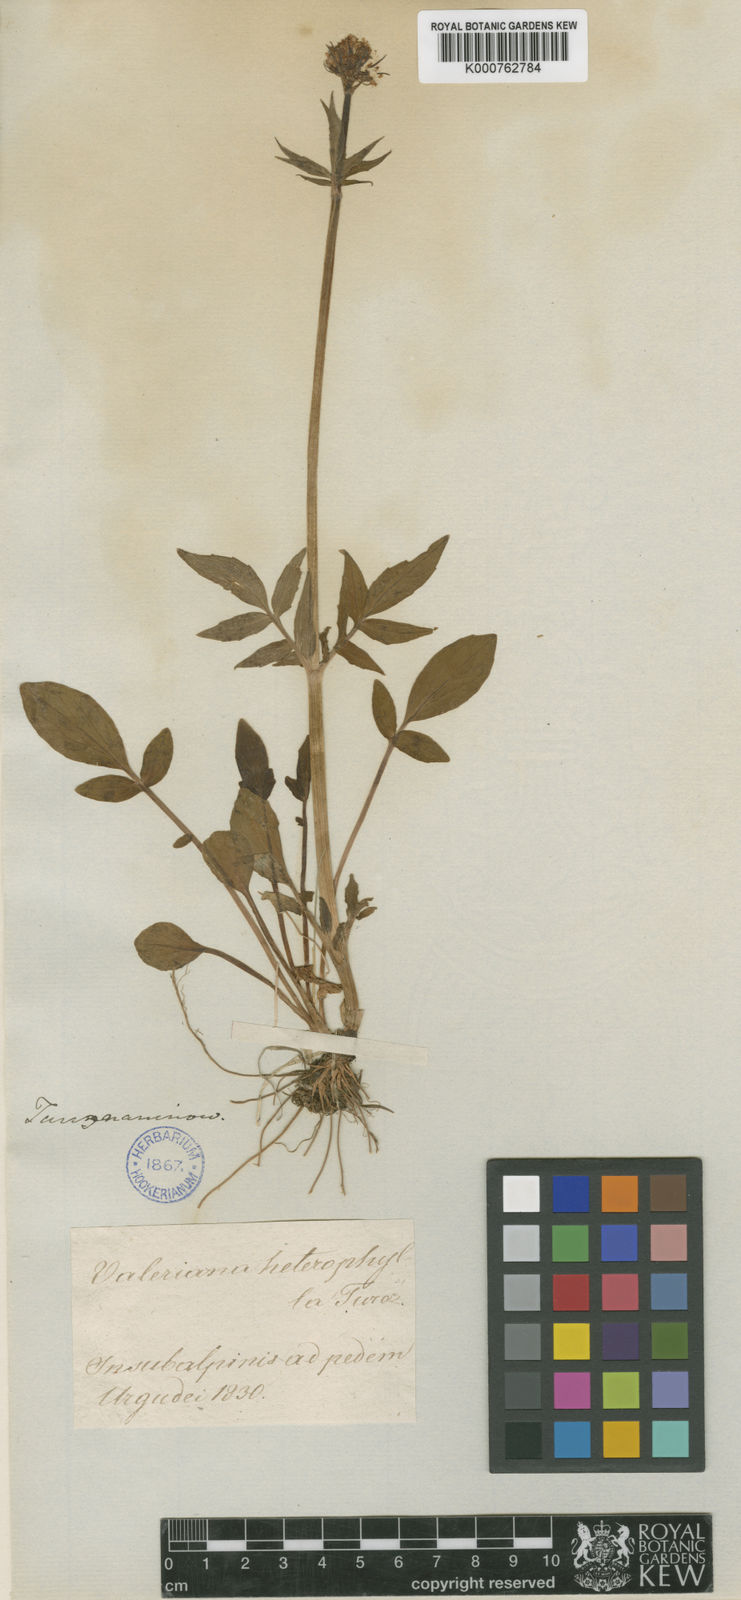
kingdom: Plantae
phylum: Tracheophyta
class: Magnoliopsida
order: Dipsacales
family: Caprifoliaceae
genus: Valeriana
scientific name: Valeriana altaica
